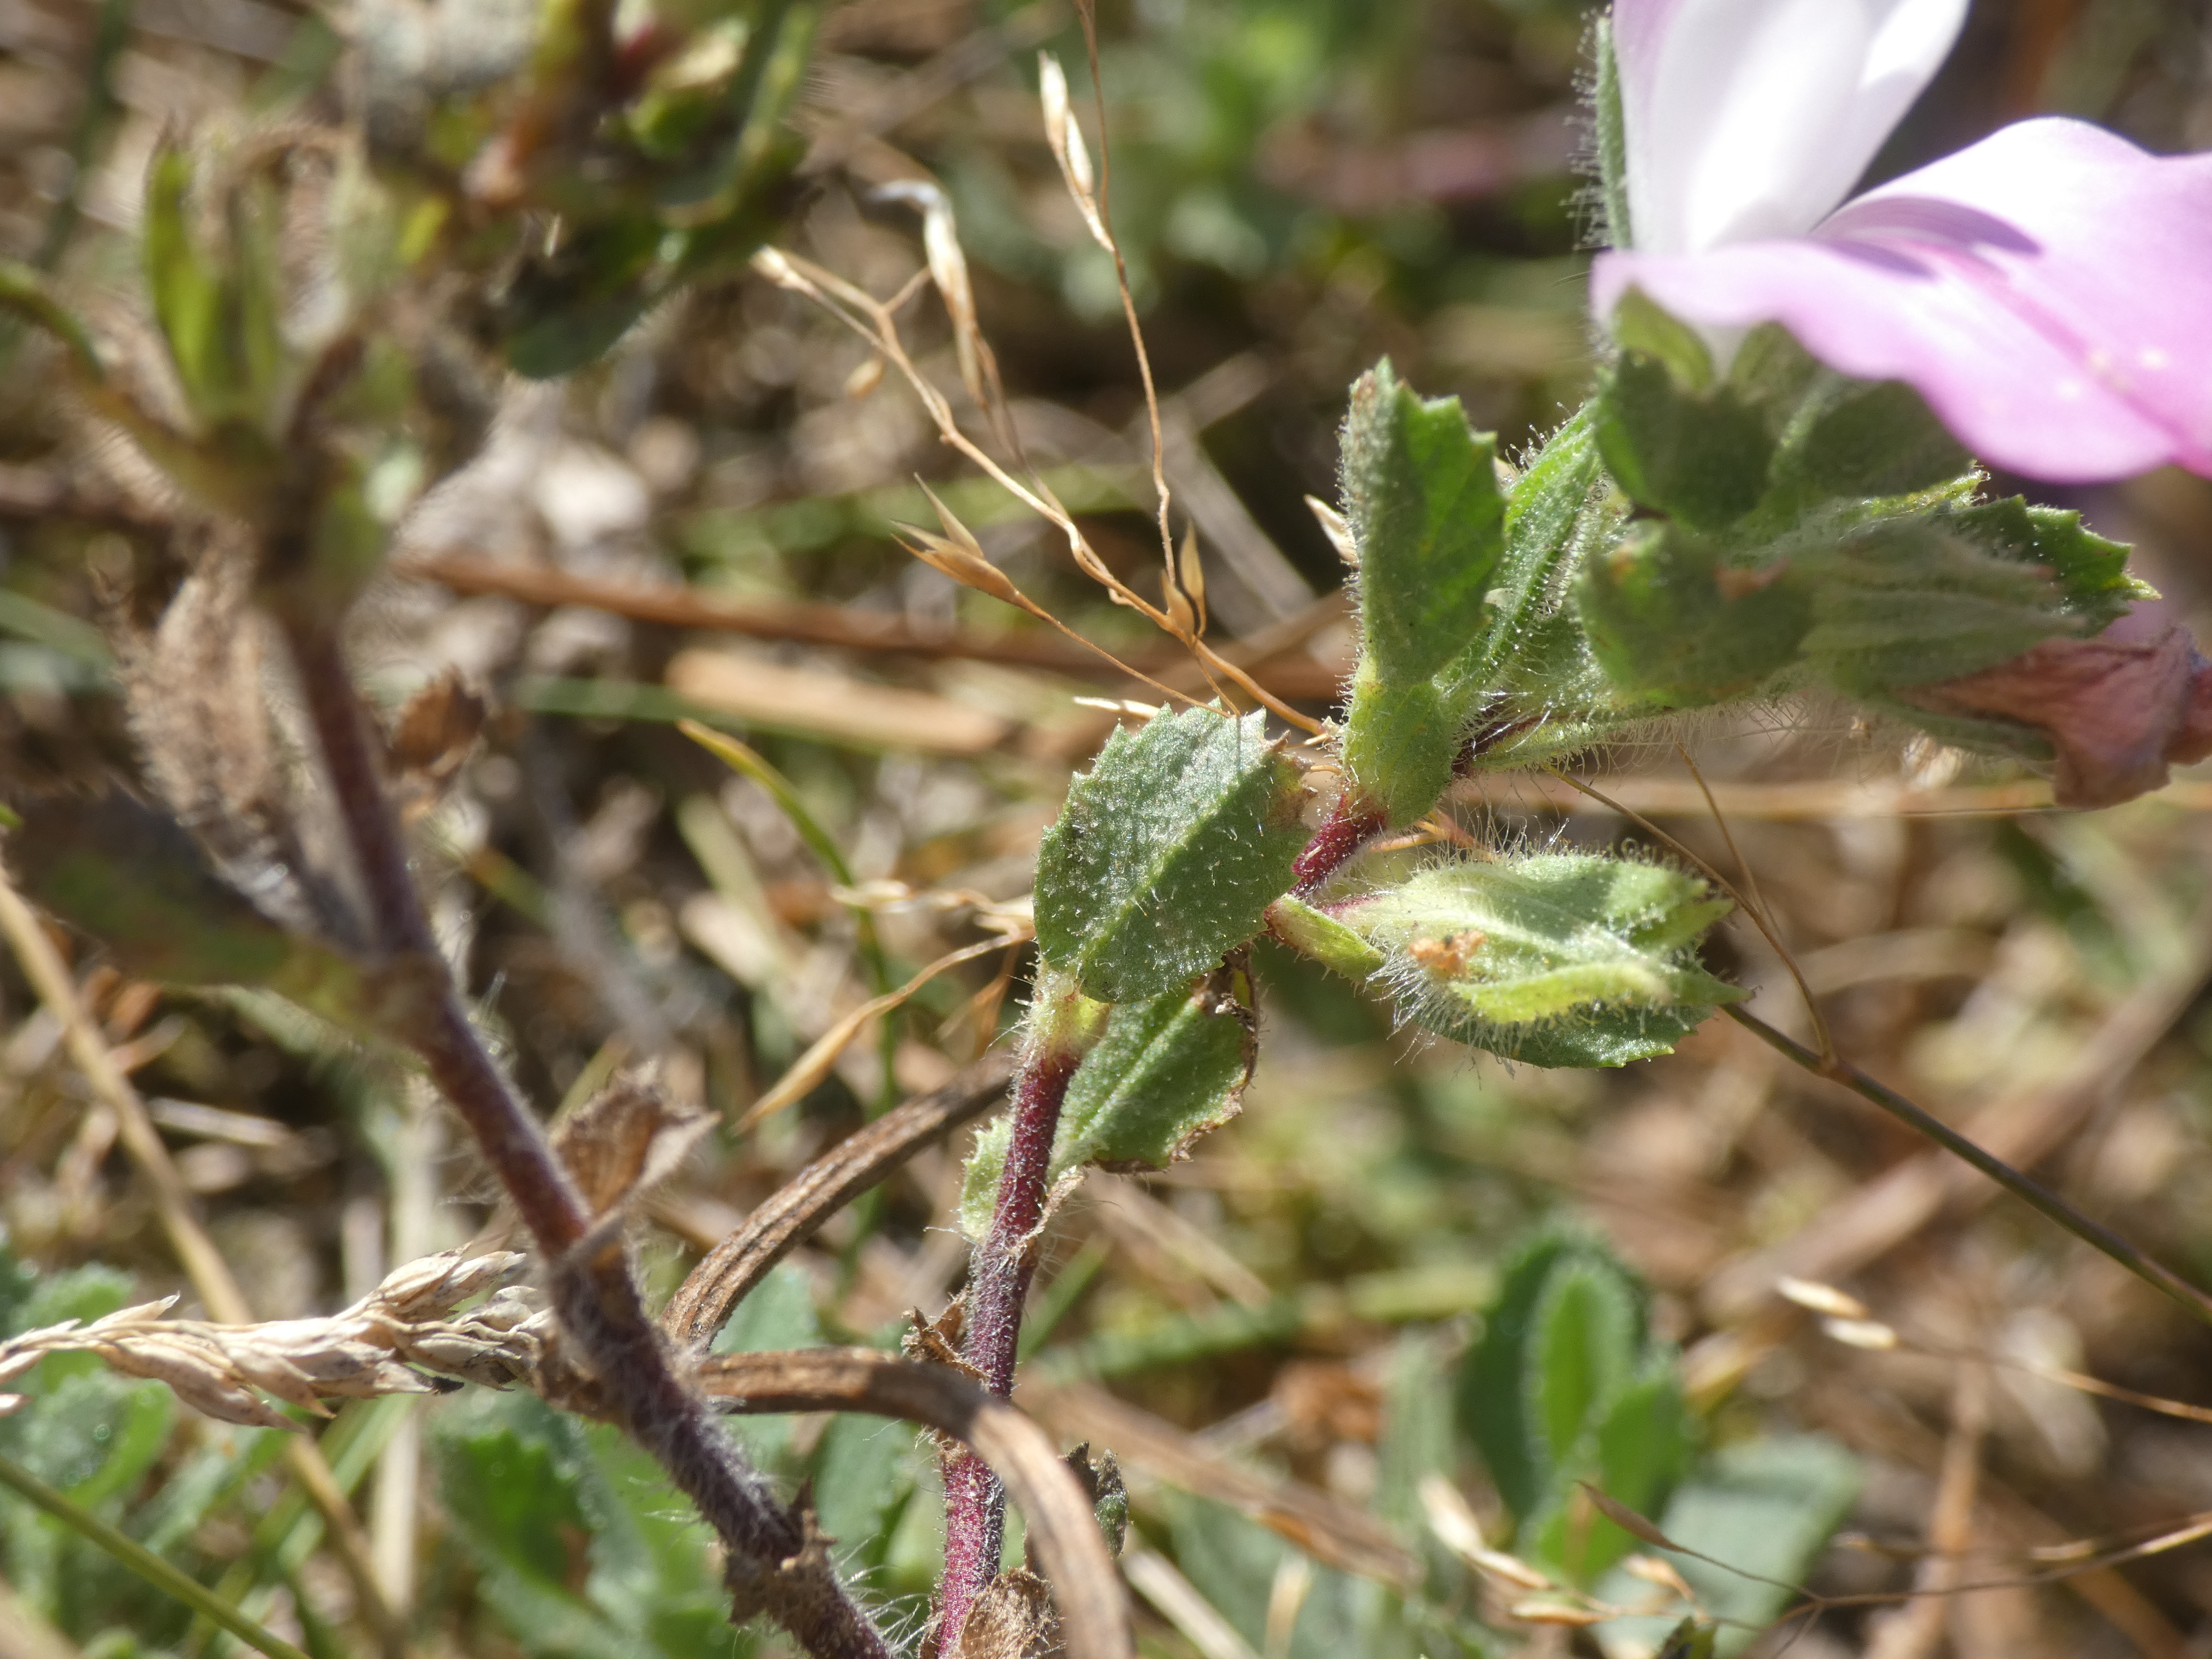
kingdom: Plantae
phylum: Tracheophyta
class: Magnoliopsida
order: Fabales
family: Fabaceae
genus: Ononis
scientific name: Ononis spinosa
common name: Mark-krageklo
